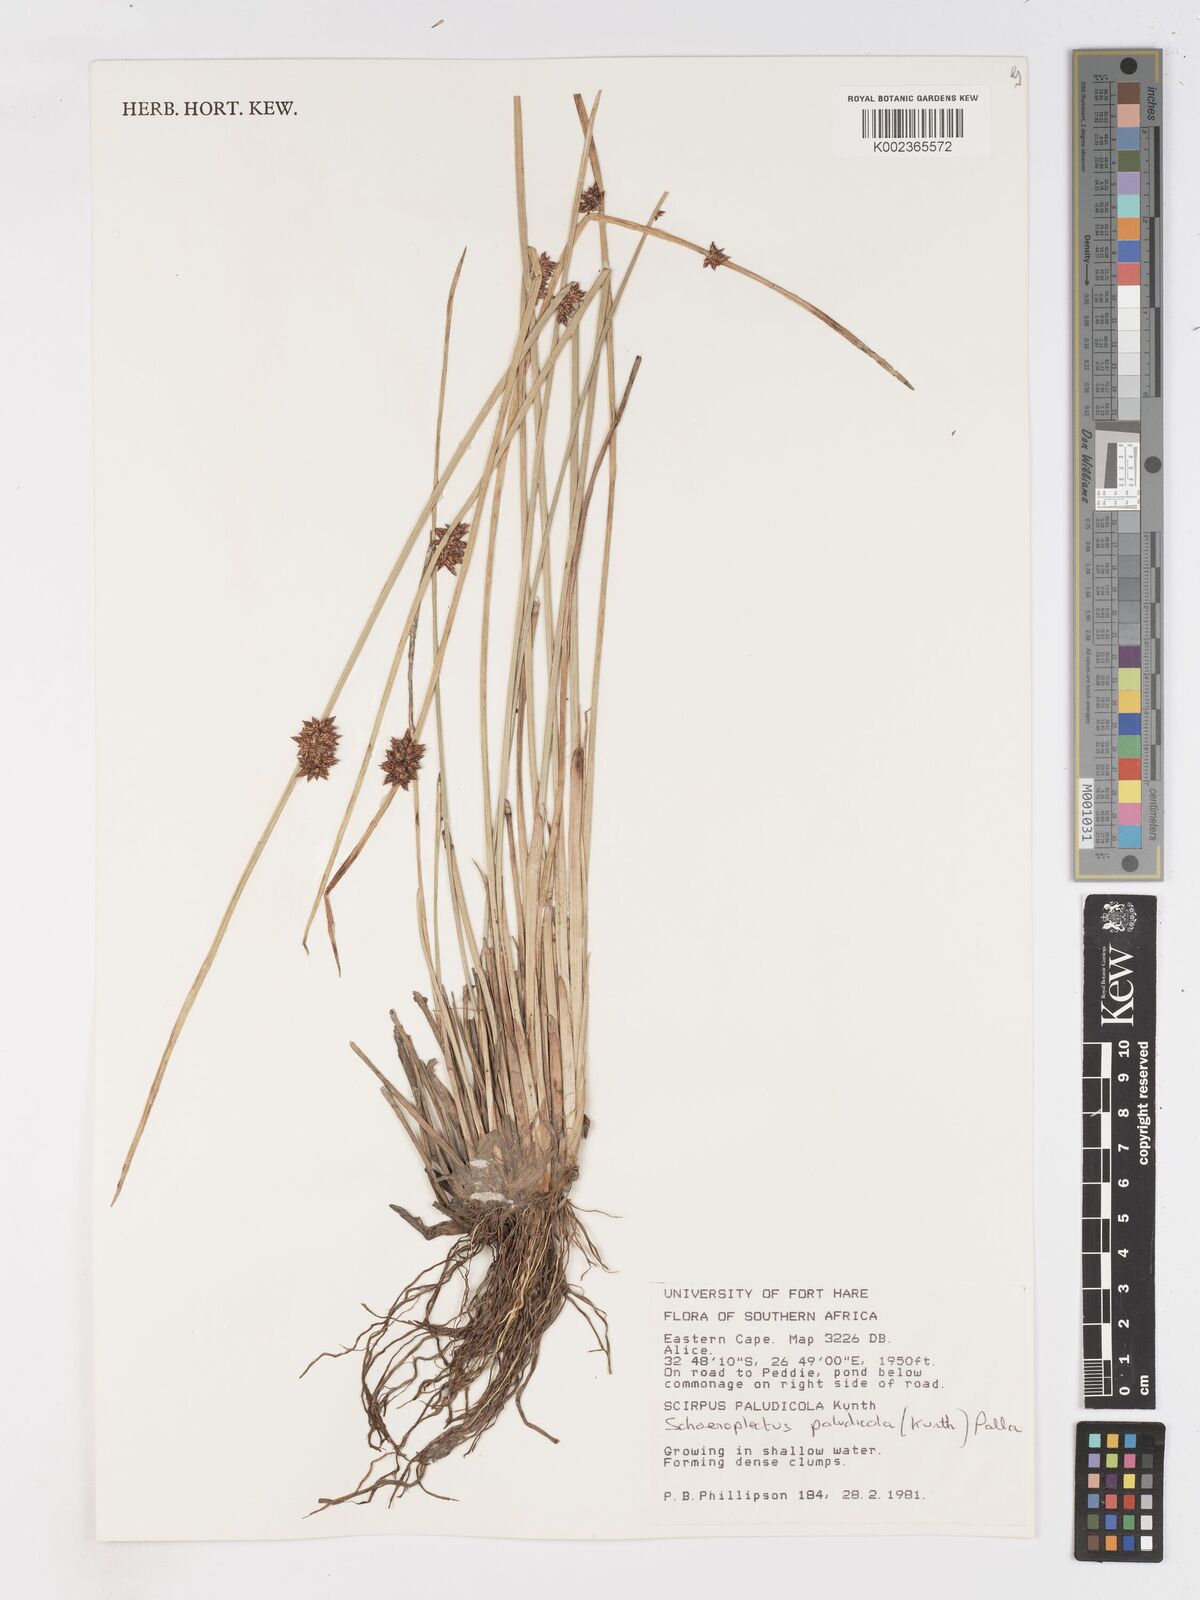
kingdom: Plantae
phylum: Tracheophyta
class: Liliopsida
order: Poales
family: Cyperaceae
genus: Schoenoplectiella
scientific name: Schoenoplectiella paludicola
